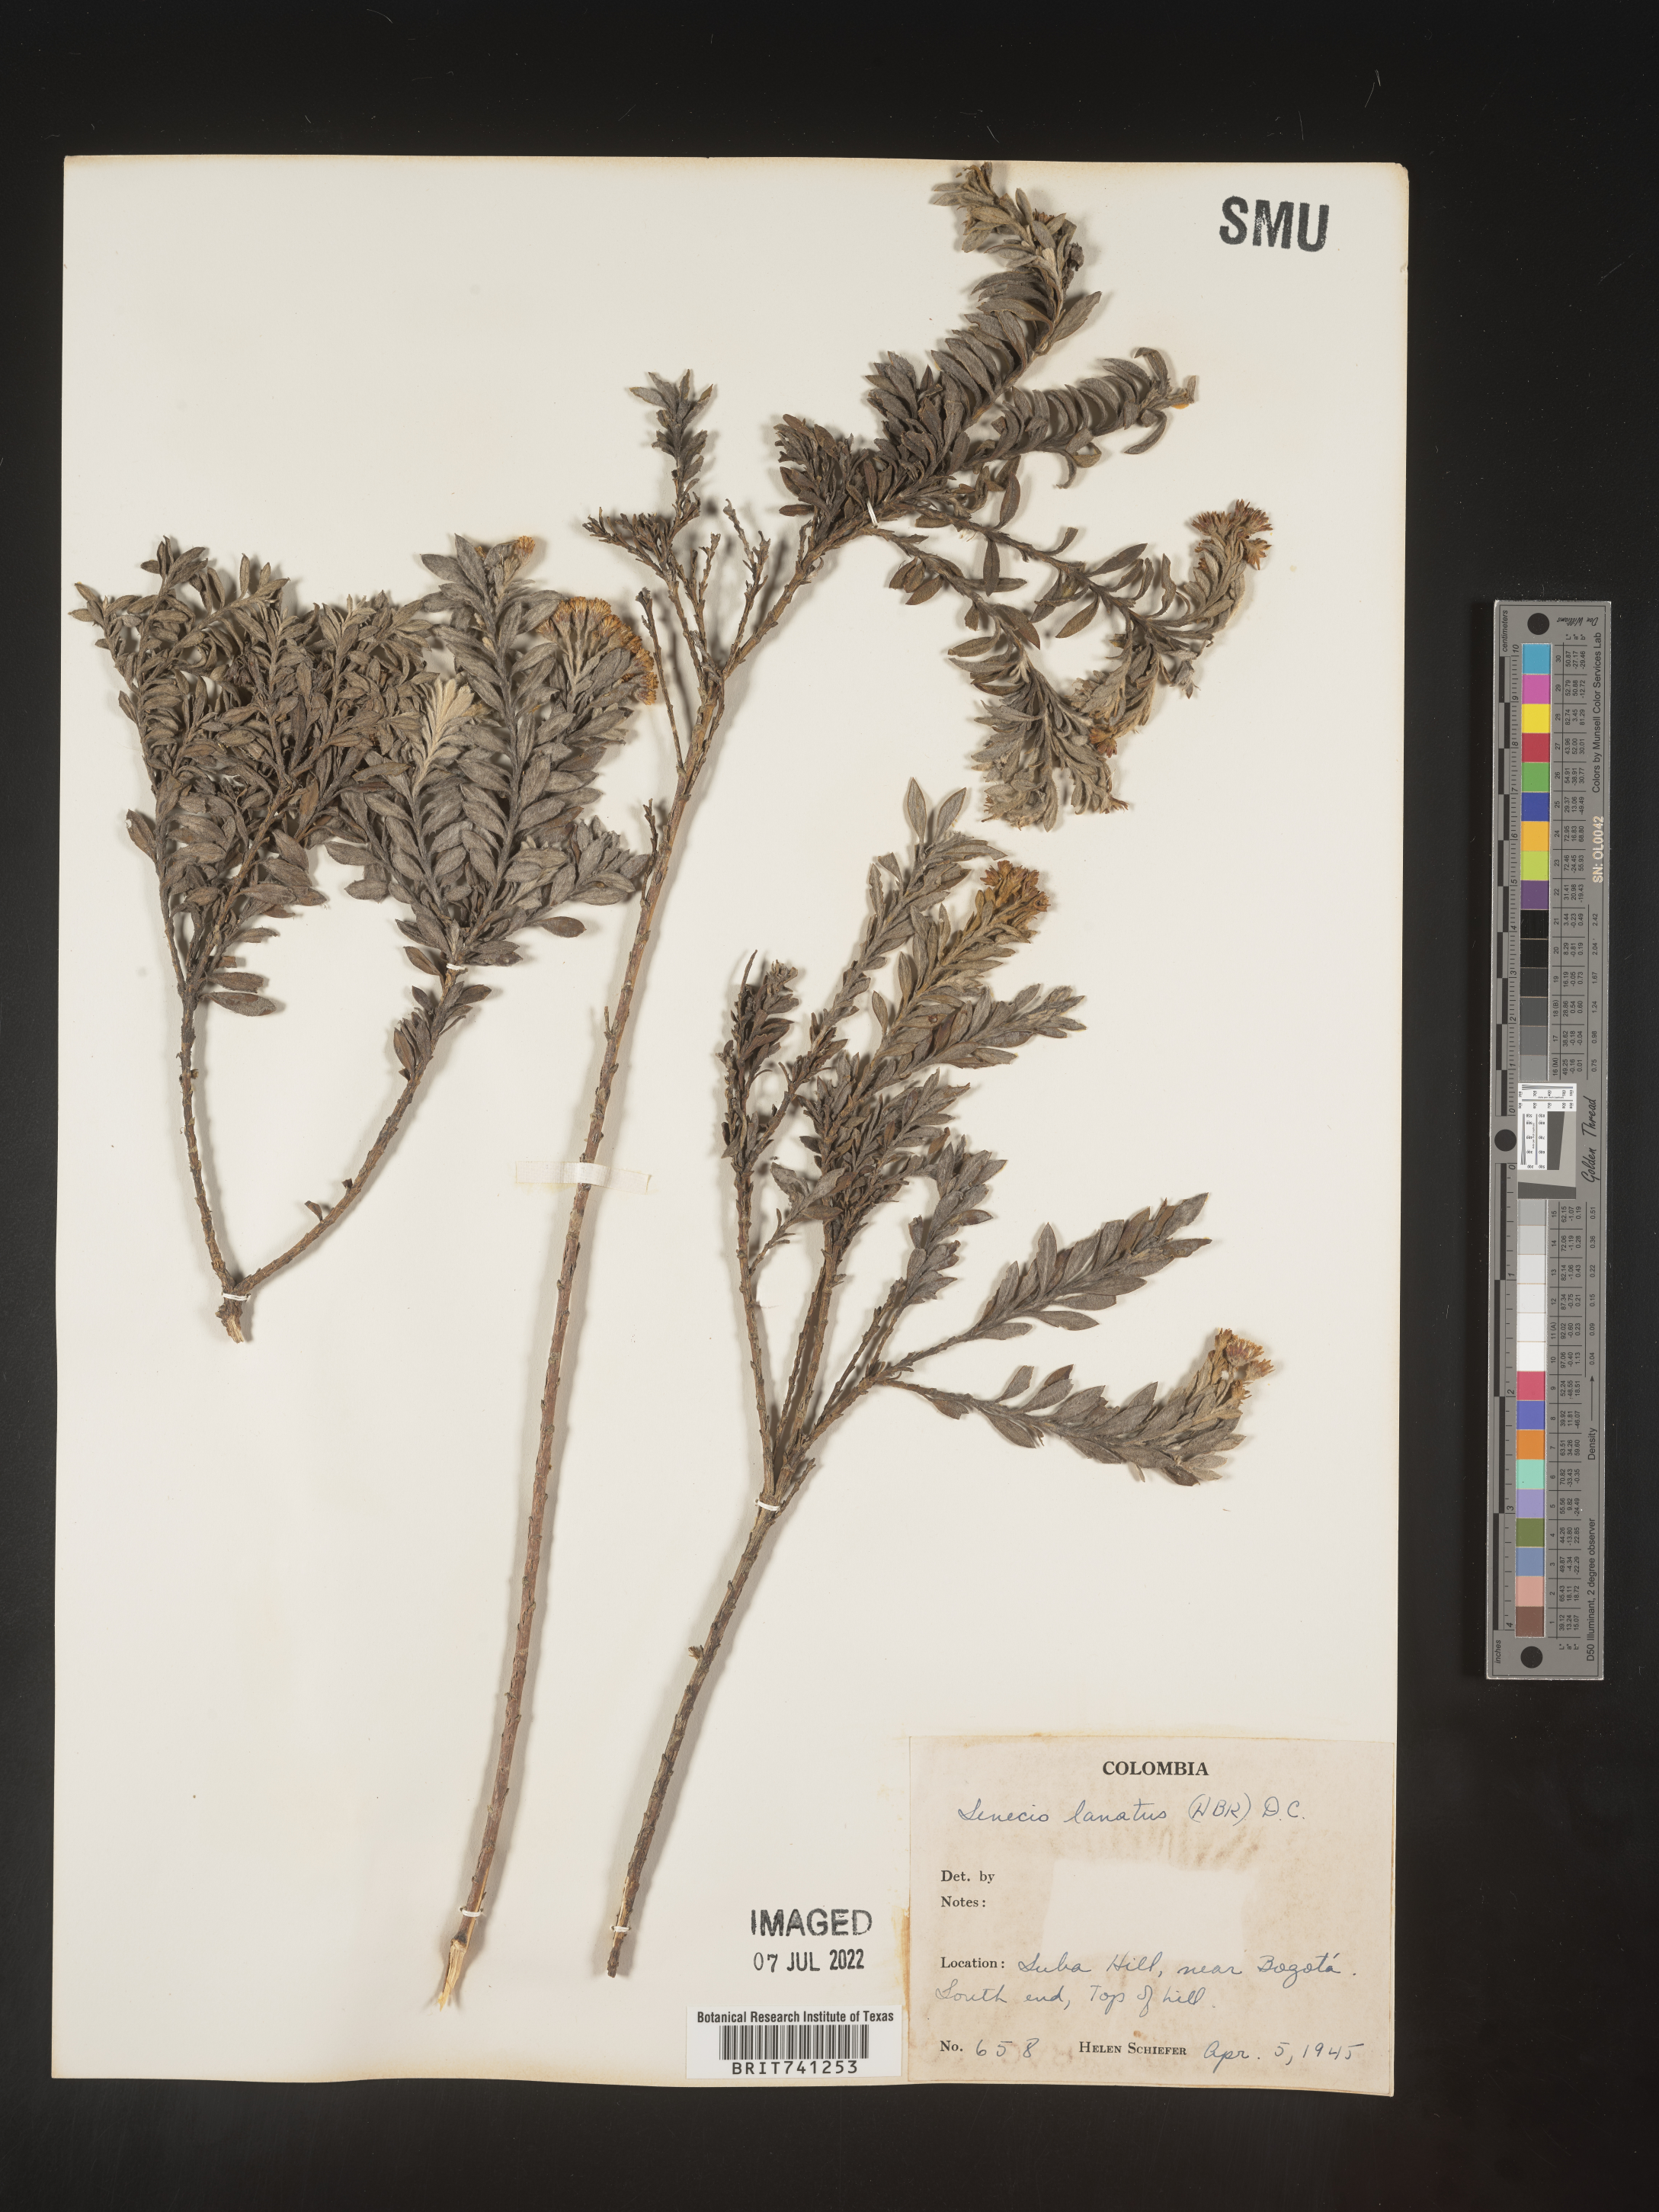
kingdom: Plantae
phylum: Tracheophyta
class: Magnoliopsida
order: Asterales
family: Asteraceae
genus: Senecio
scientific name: Senecio
